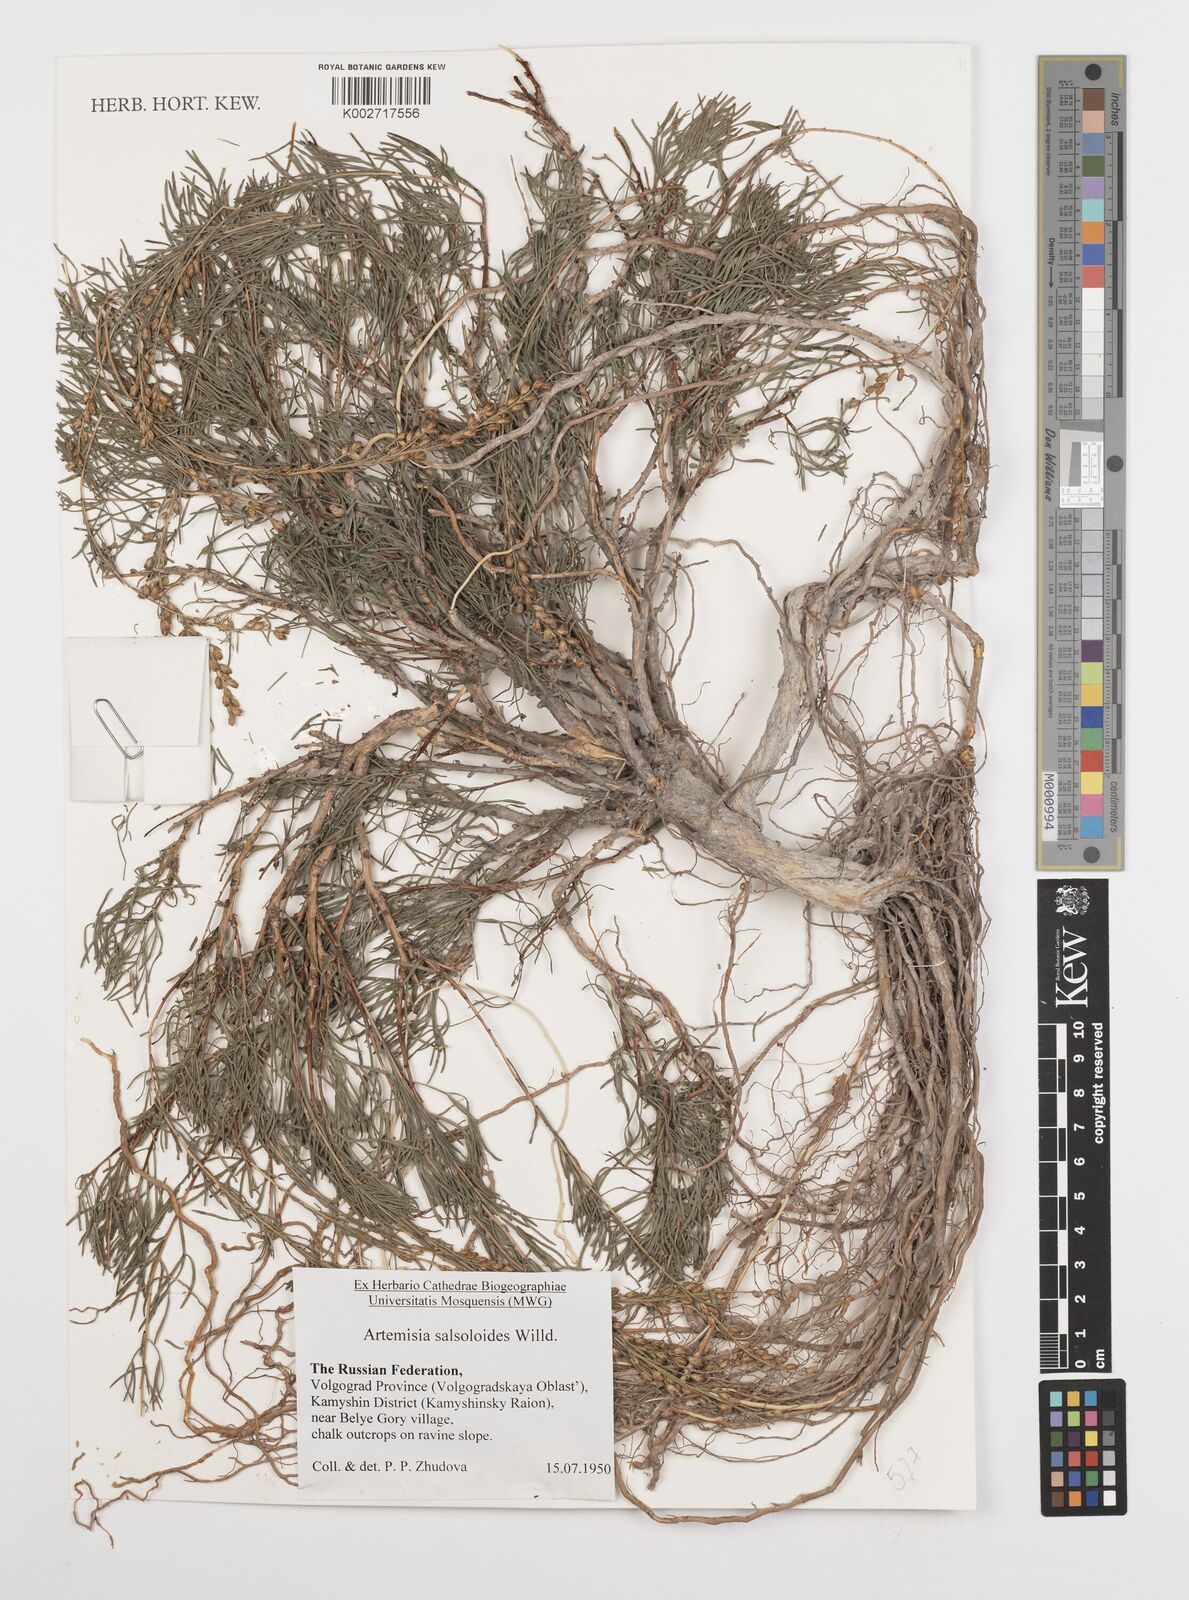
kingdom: Plantae
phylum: Tracheophyta
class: Magnoliopsida
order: Asterales
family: Asteraceae
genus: Artemisia
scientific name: Artemisia salsoloides
